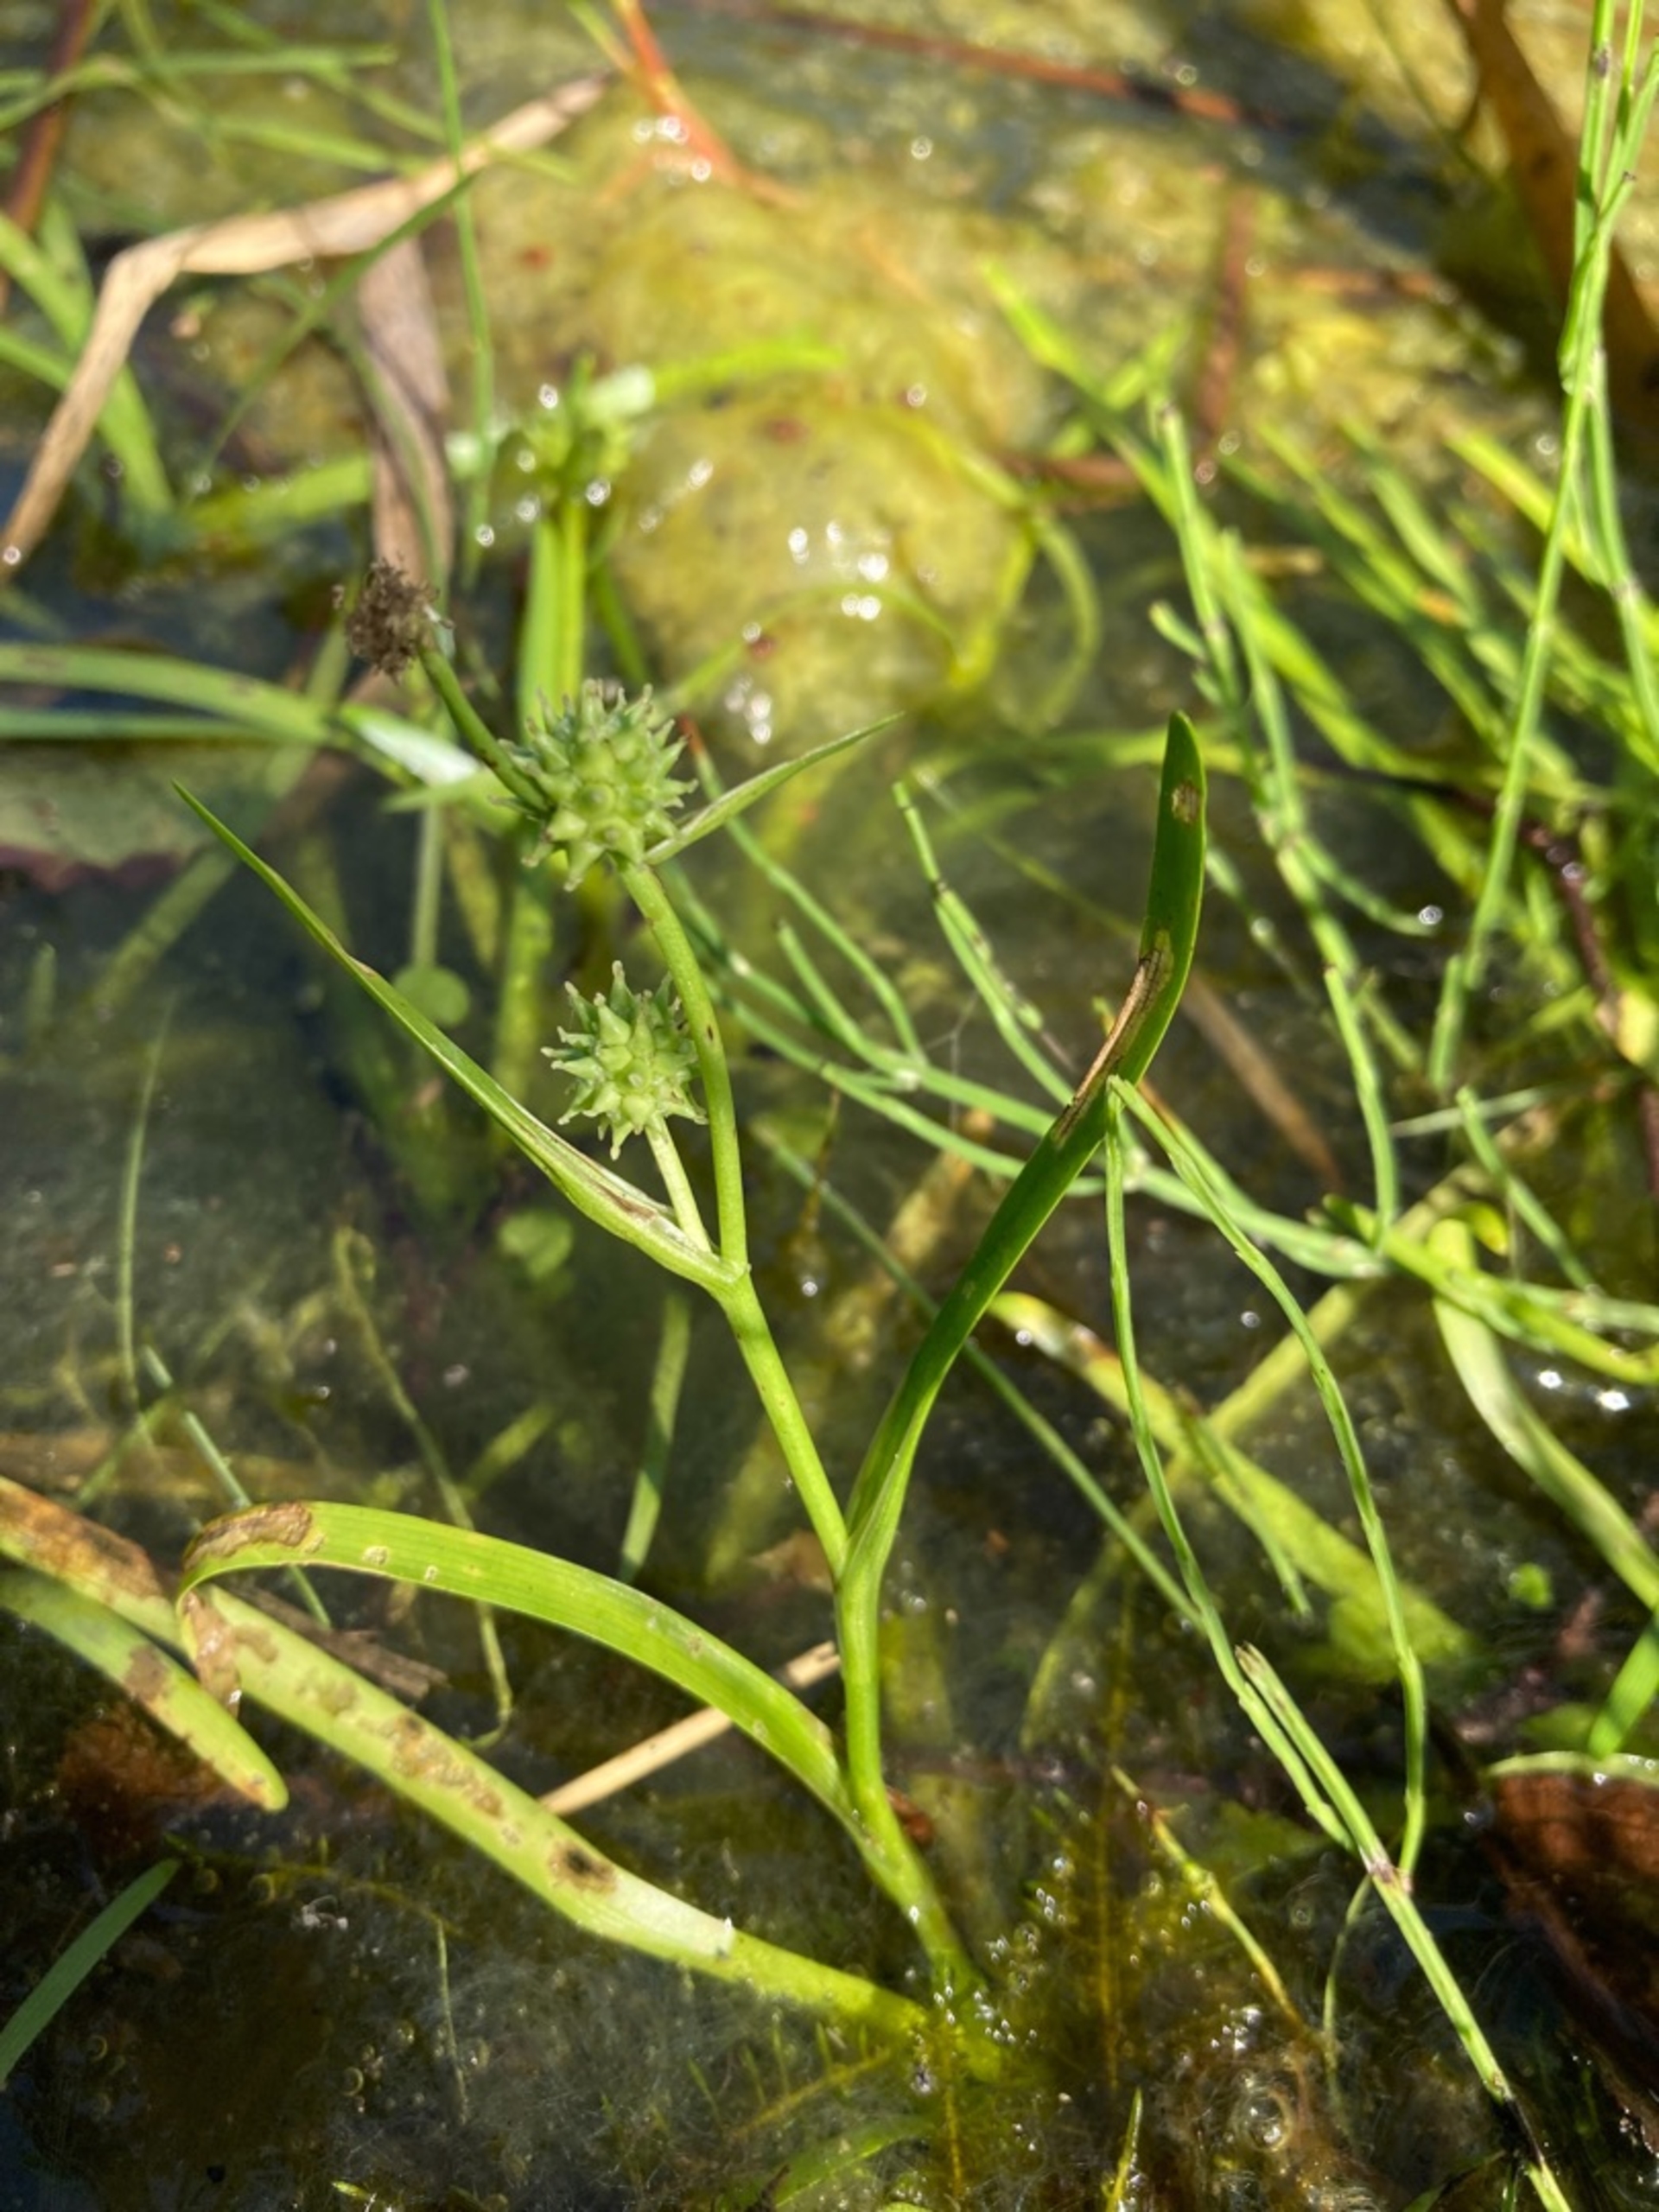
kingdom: Plantae
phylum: Tracheophyta
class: Liliopsida
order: Poales
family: Typhaceae
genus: Sparganium
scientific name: Sparganium natans
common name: Spæd pindsvineknop
